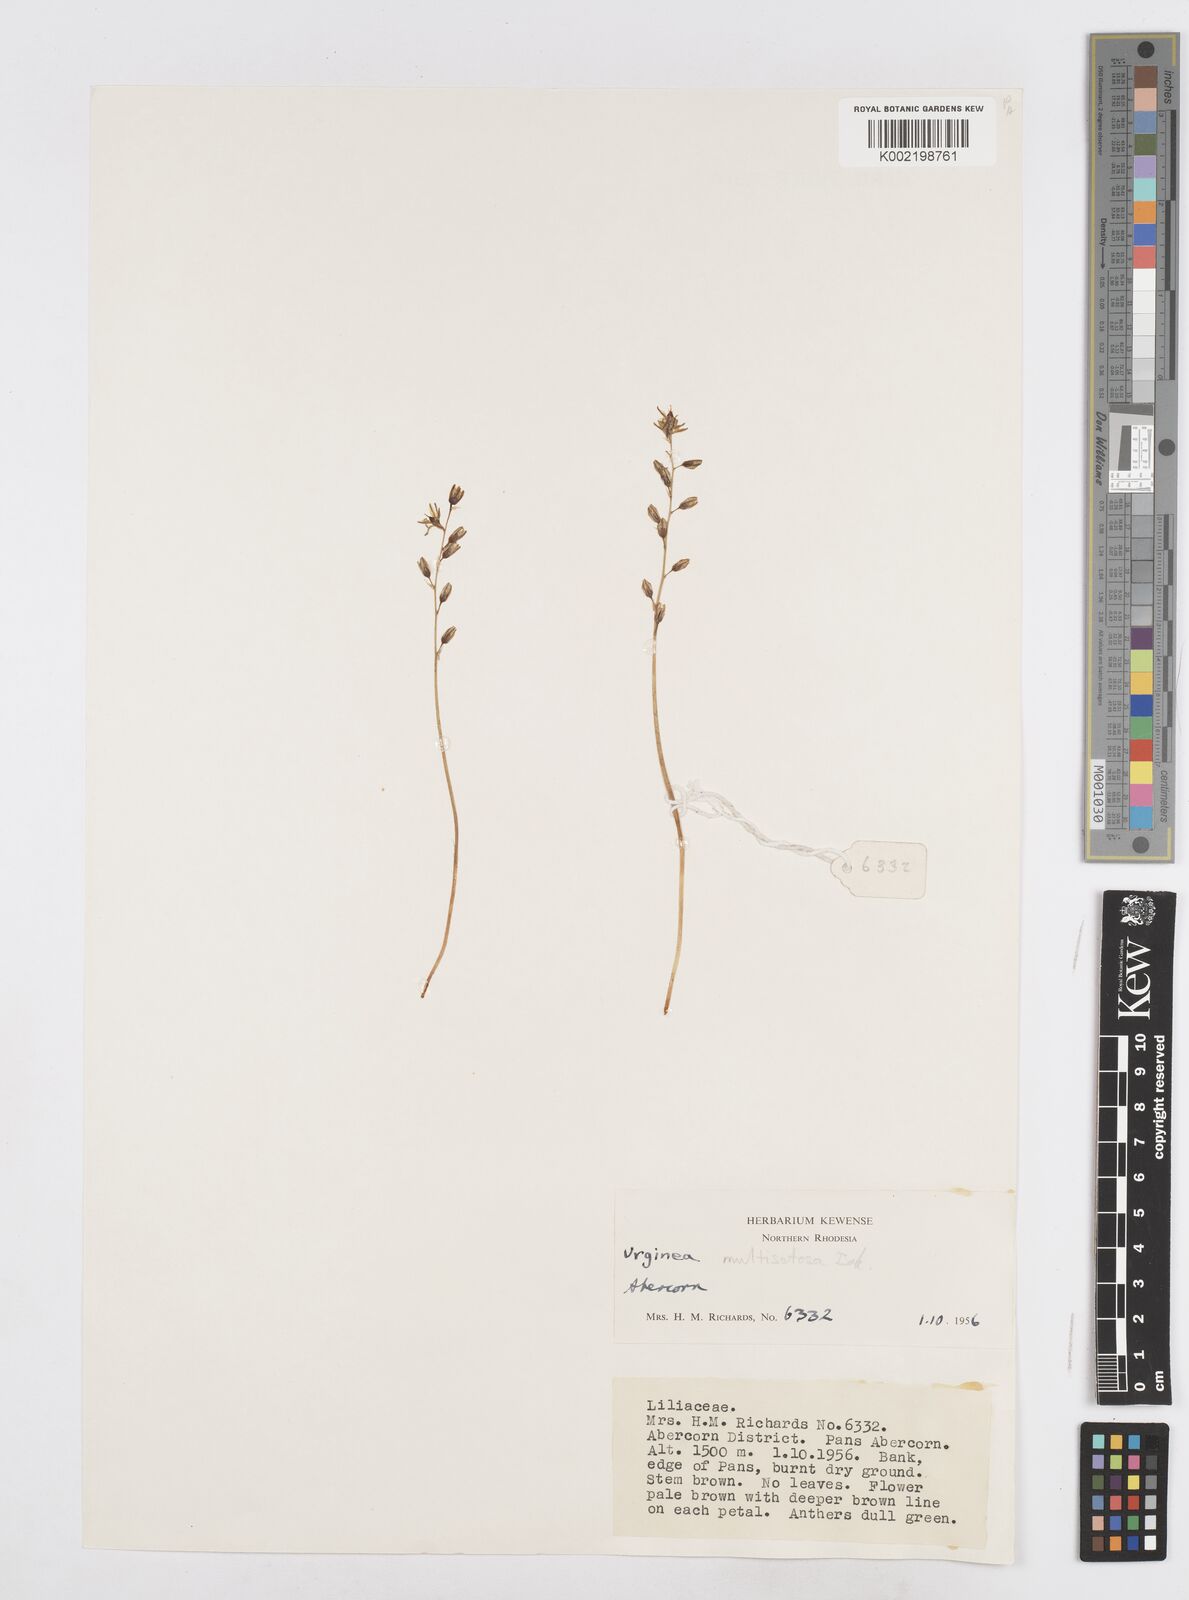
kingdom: Plantae
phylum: Tracheophyta
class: Liliopsida
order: Asparagales
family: Asparagaceae
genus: Drimia
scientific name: Drimia multisetosa
